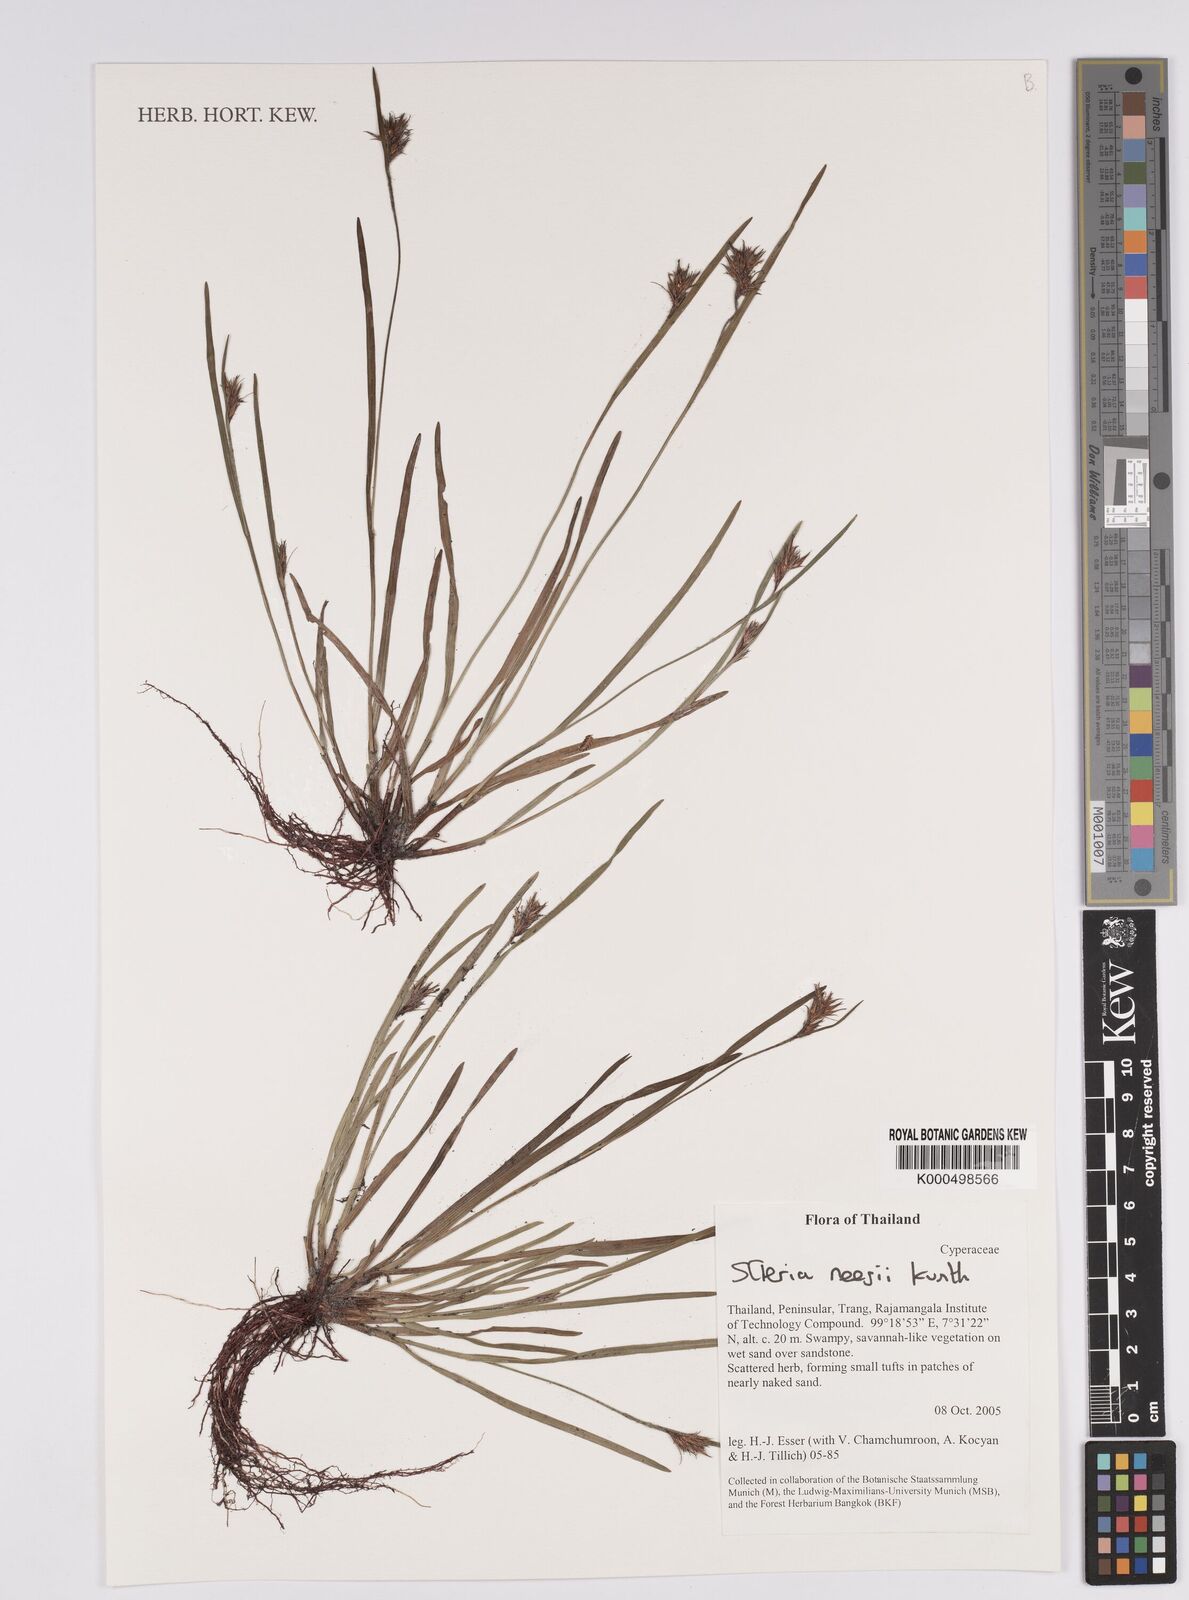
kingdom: Plantae
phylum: Tracheophyta
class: Liliopsida
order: Poales
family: Cyperaceae
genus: Scleria
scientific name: Scleria neesii
